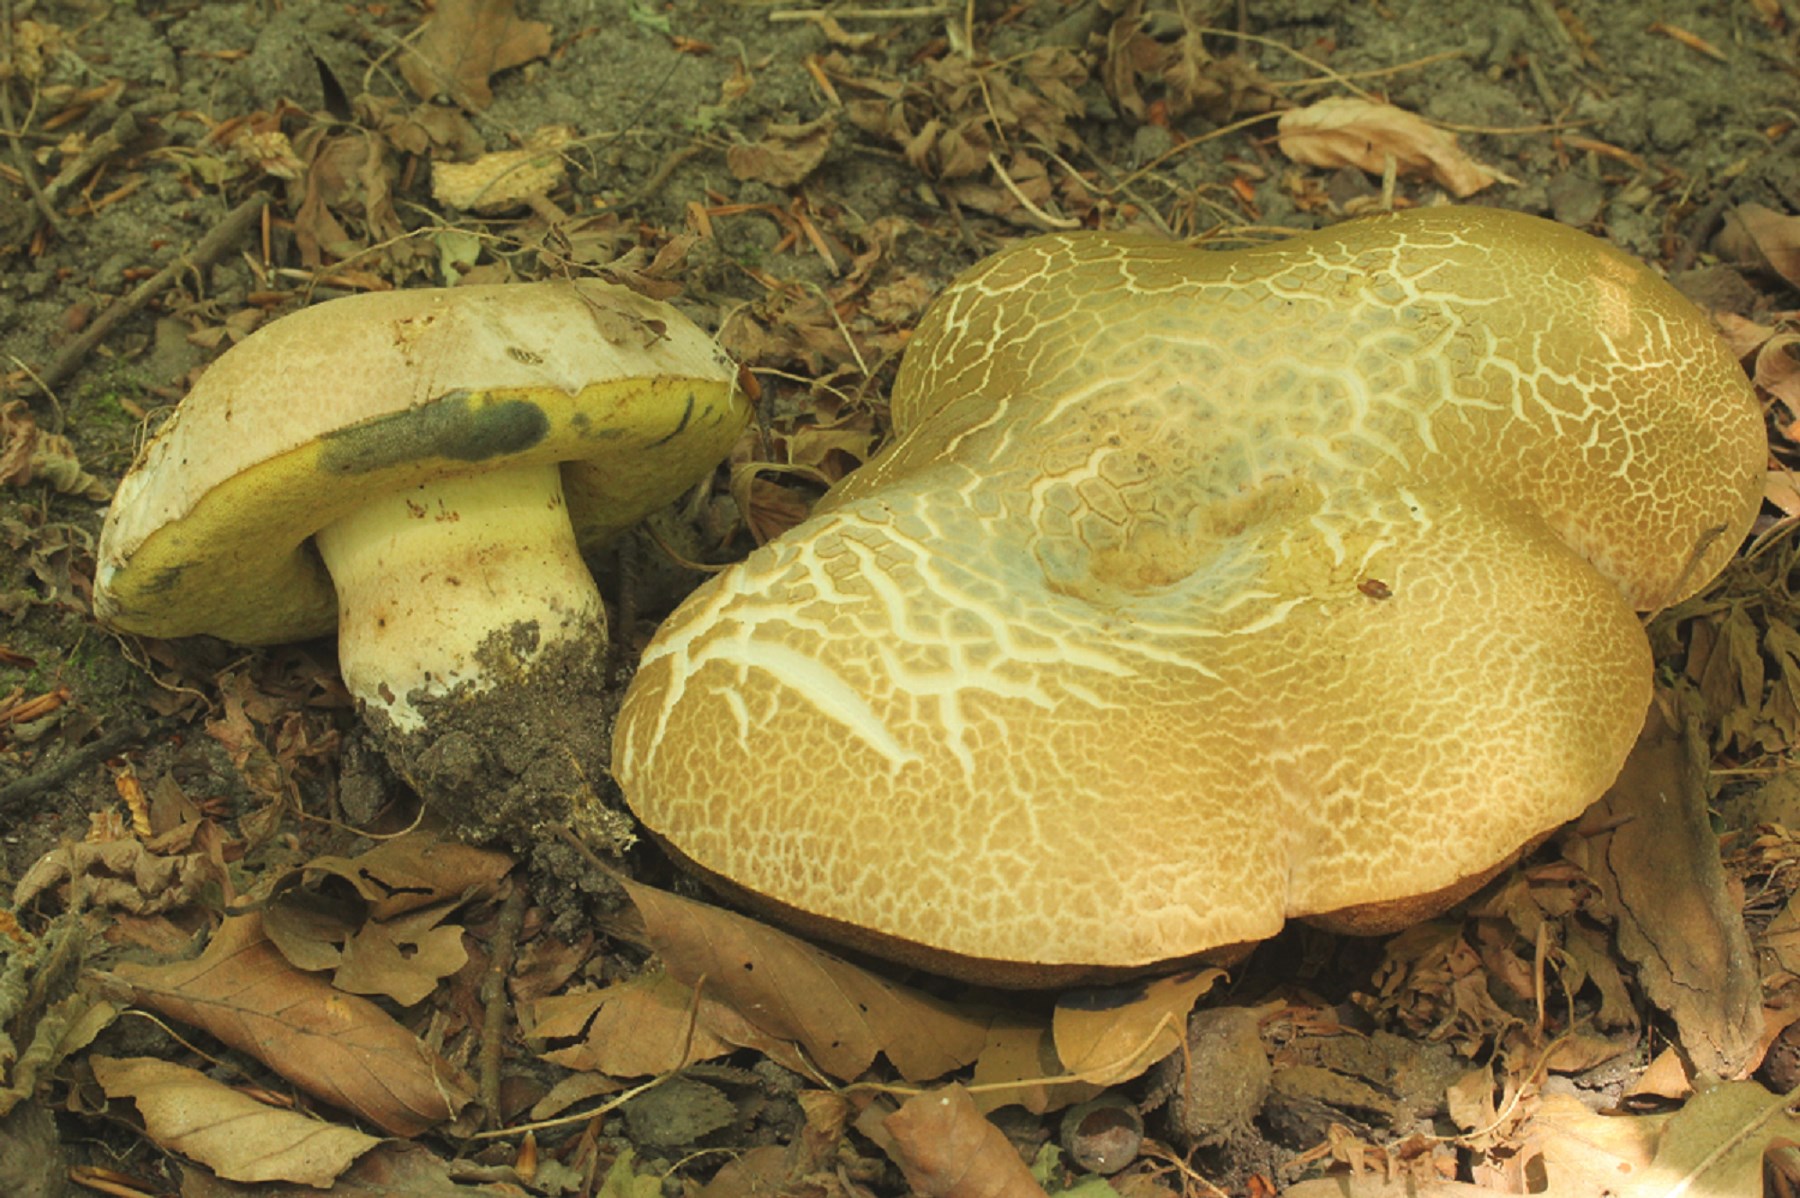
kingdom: Fungi
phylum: Basidiomycota
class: Agaricomycetes
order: Boletales
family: Boletaceae
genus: Caloboletus
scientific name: Caloboletus radicans
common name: rod-rørhat
